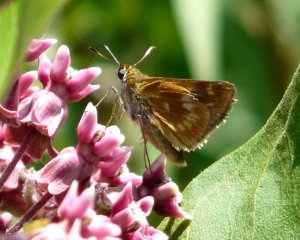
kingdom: Animalia
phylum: Arthropoda
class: Insecta
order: Lepidoptera
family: Hesperiidae
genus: Polites
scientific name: Polites
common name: Long Dash Skipper
